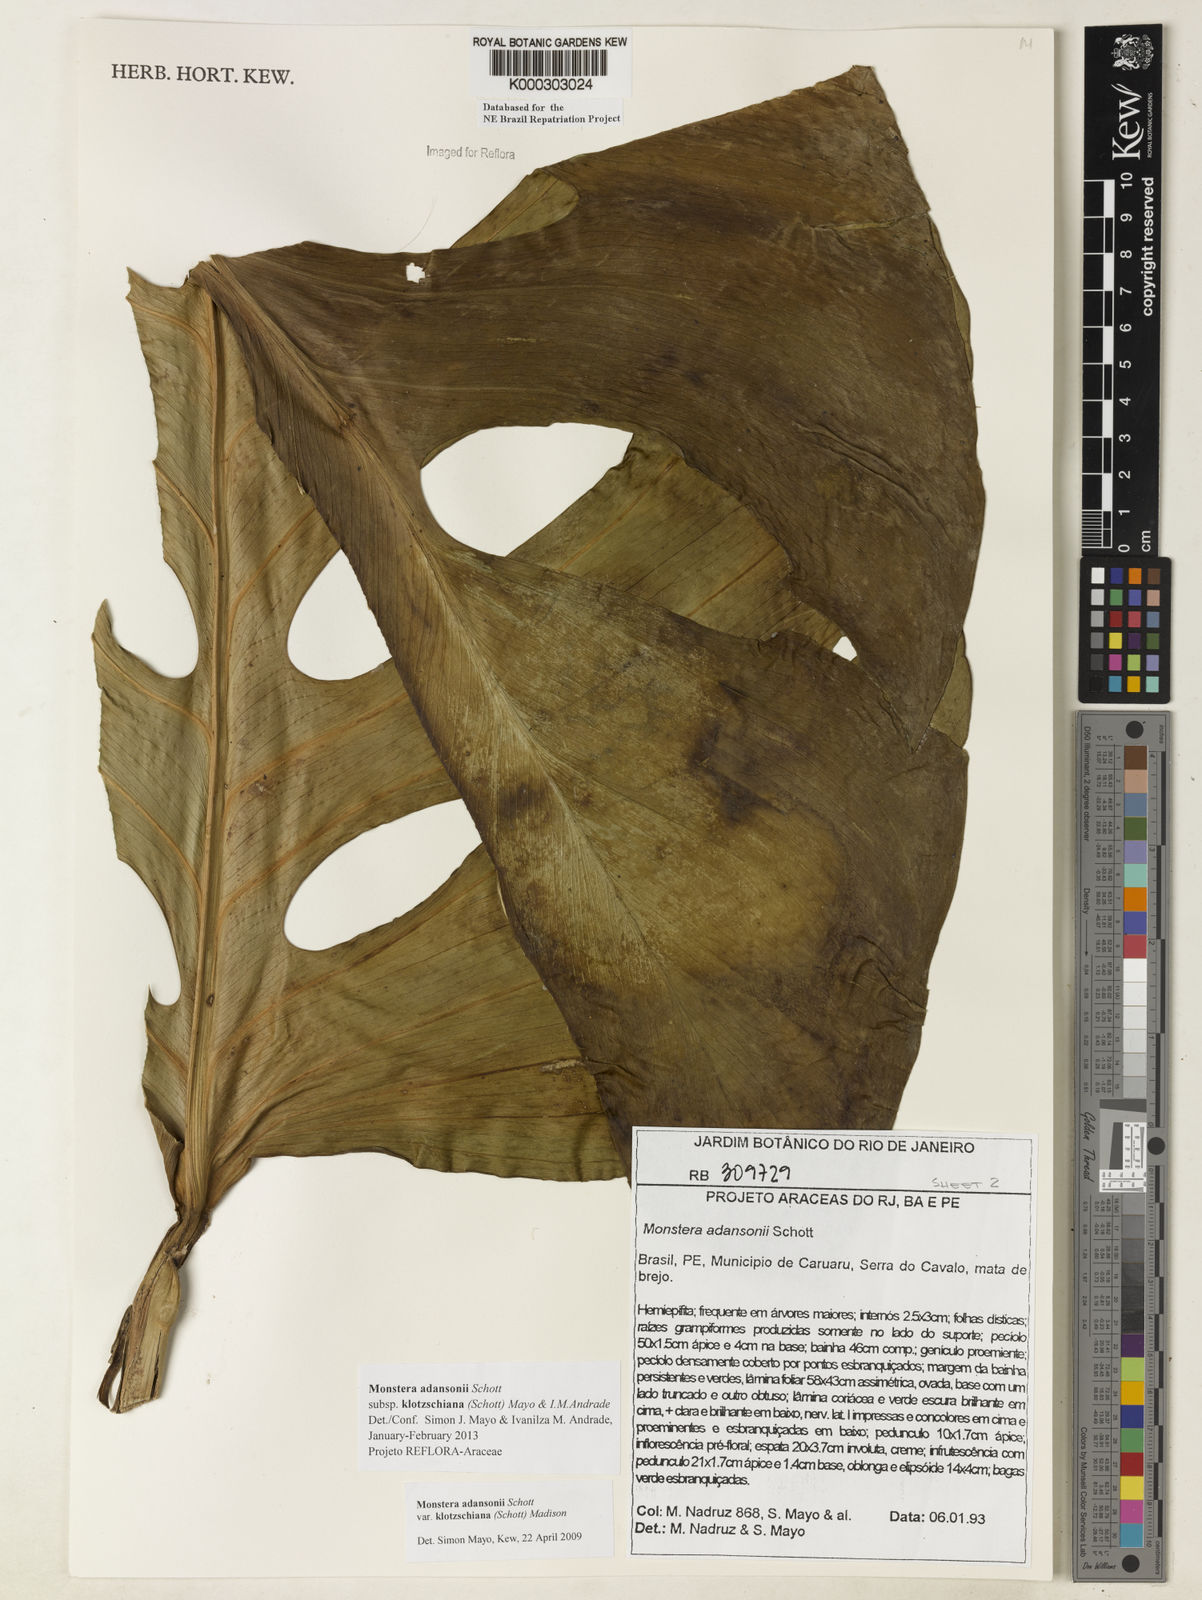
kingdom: Plantae
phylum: Tracheophyta
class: Liliopsida
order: Alismatales
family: Araceae
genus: Monstera
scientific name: Monstera adansonii
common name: Tarovine
